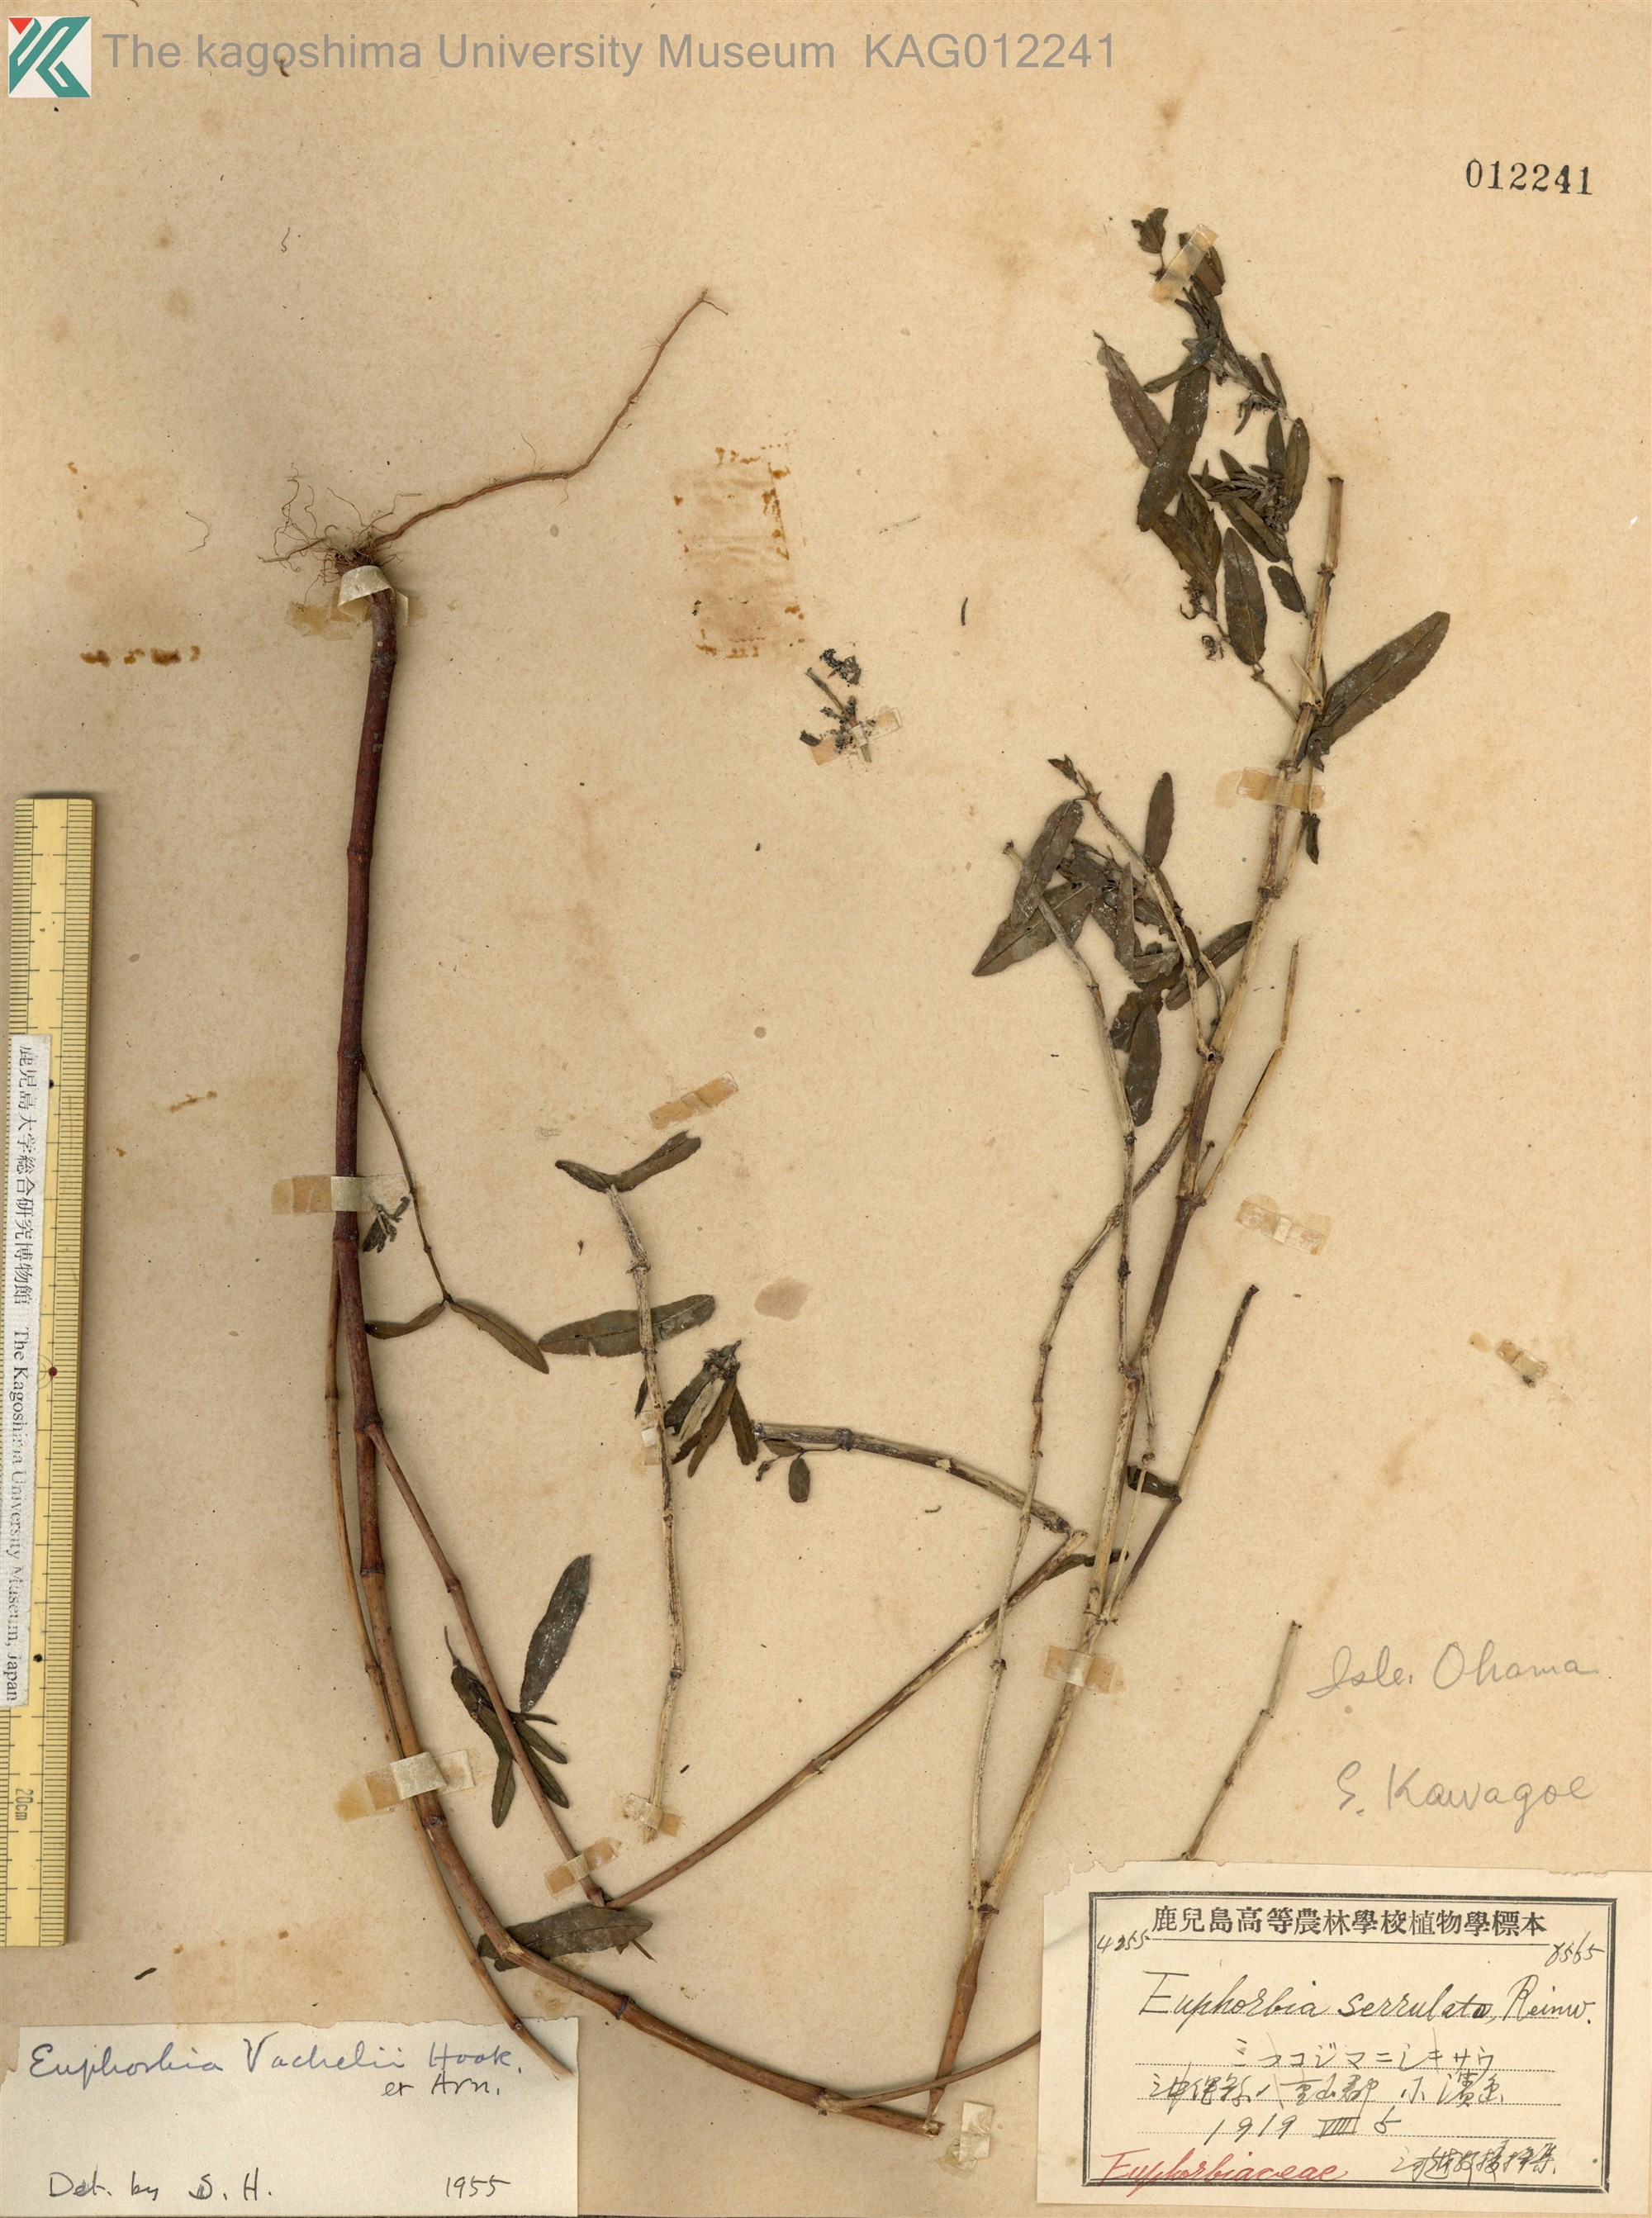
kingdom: Plantae
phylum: Tracheophyta
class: Magnoliopsida
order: Malpighiales
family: Euphorbiaceae
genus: Euphorbia
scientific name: Euphorbia bifida
